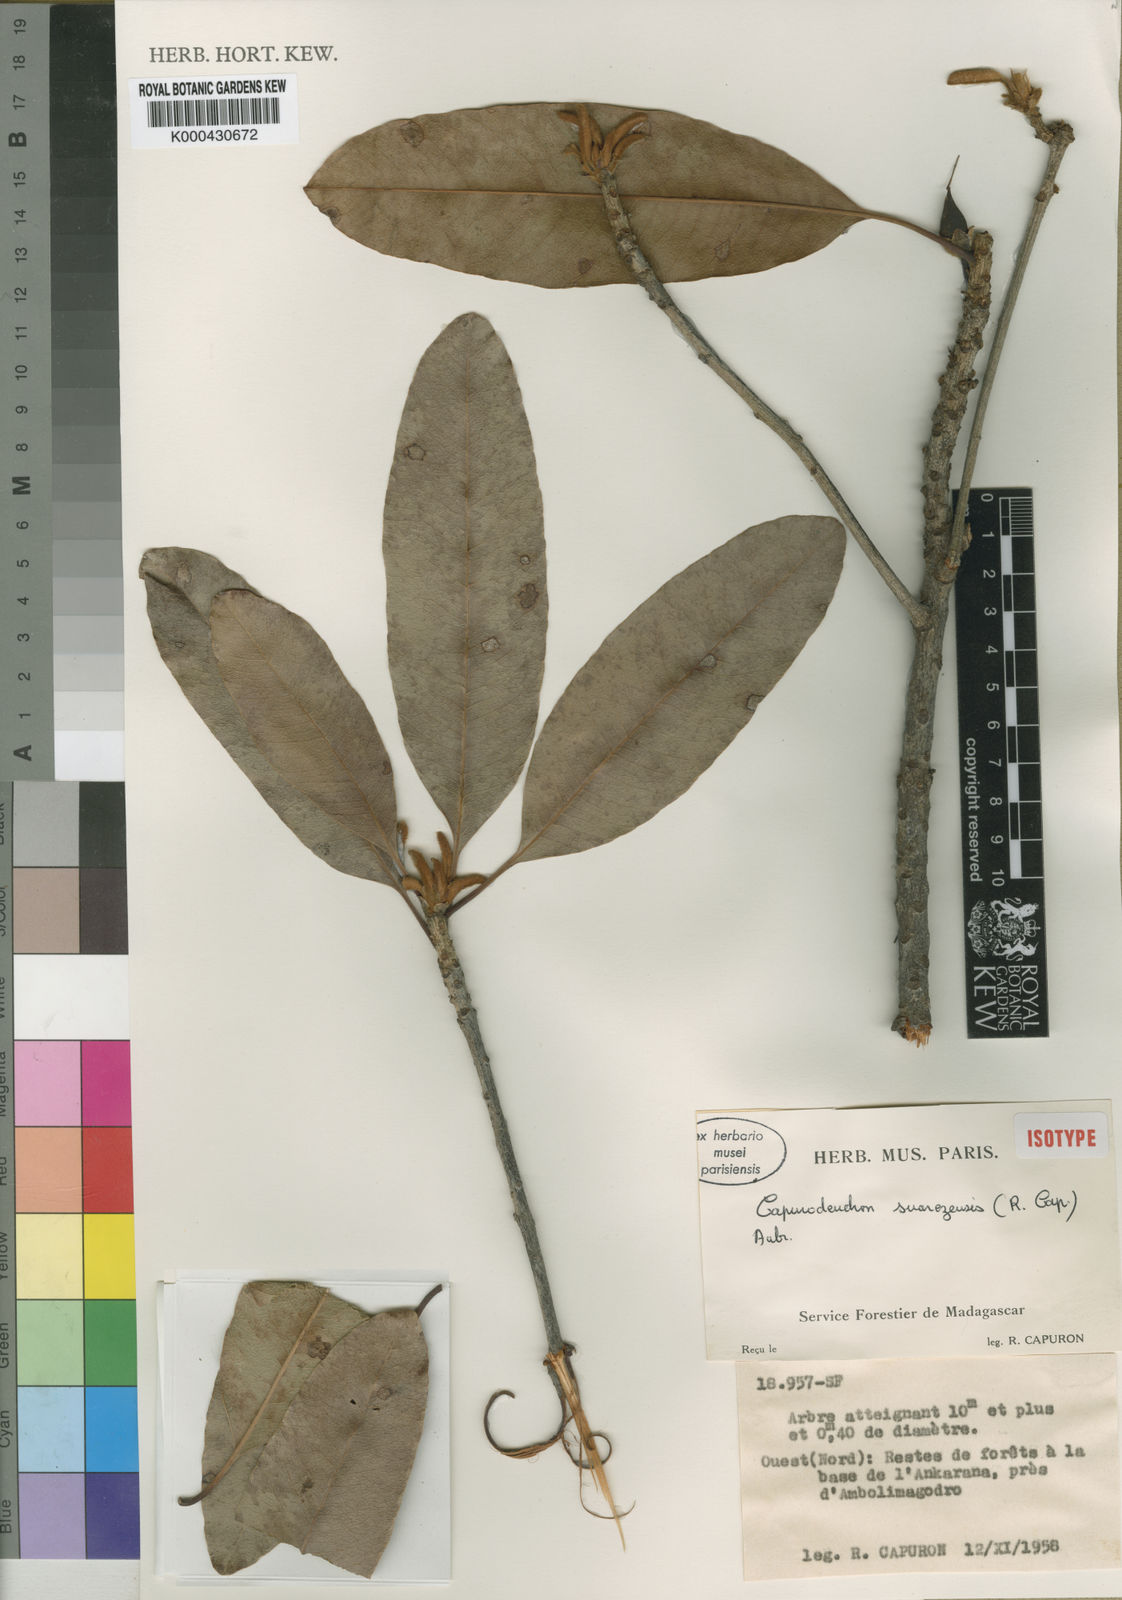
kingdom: Plantae
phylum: Tracheophyta
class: Magnoliopsida
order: Ericales
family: Sapotaceae
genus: Capurodendron
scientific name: Capurodendron
